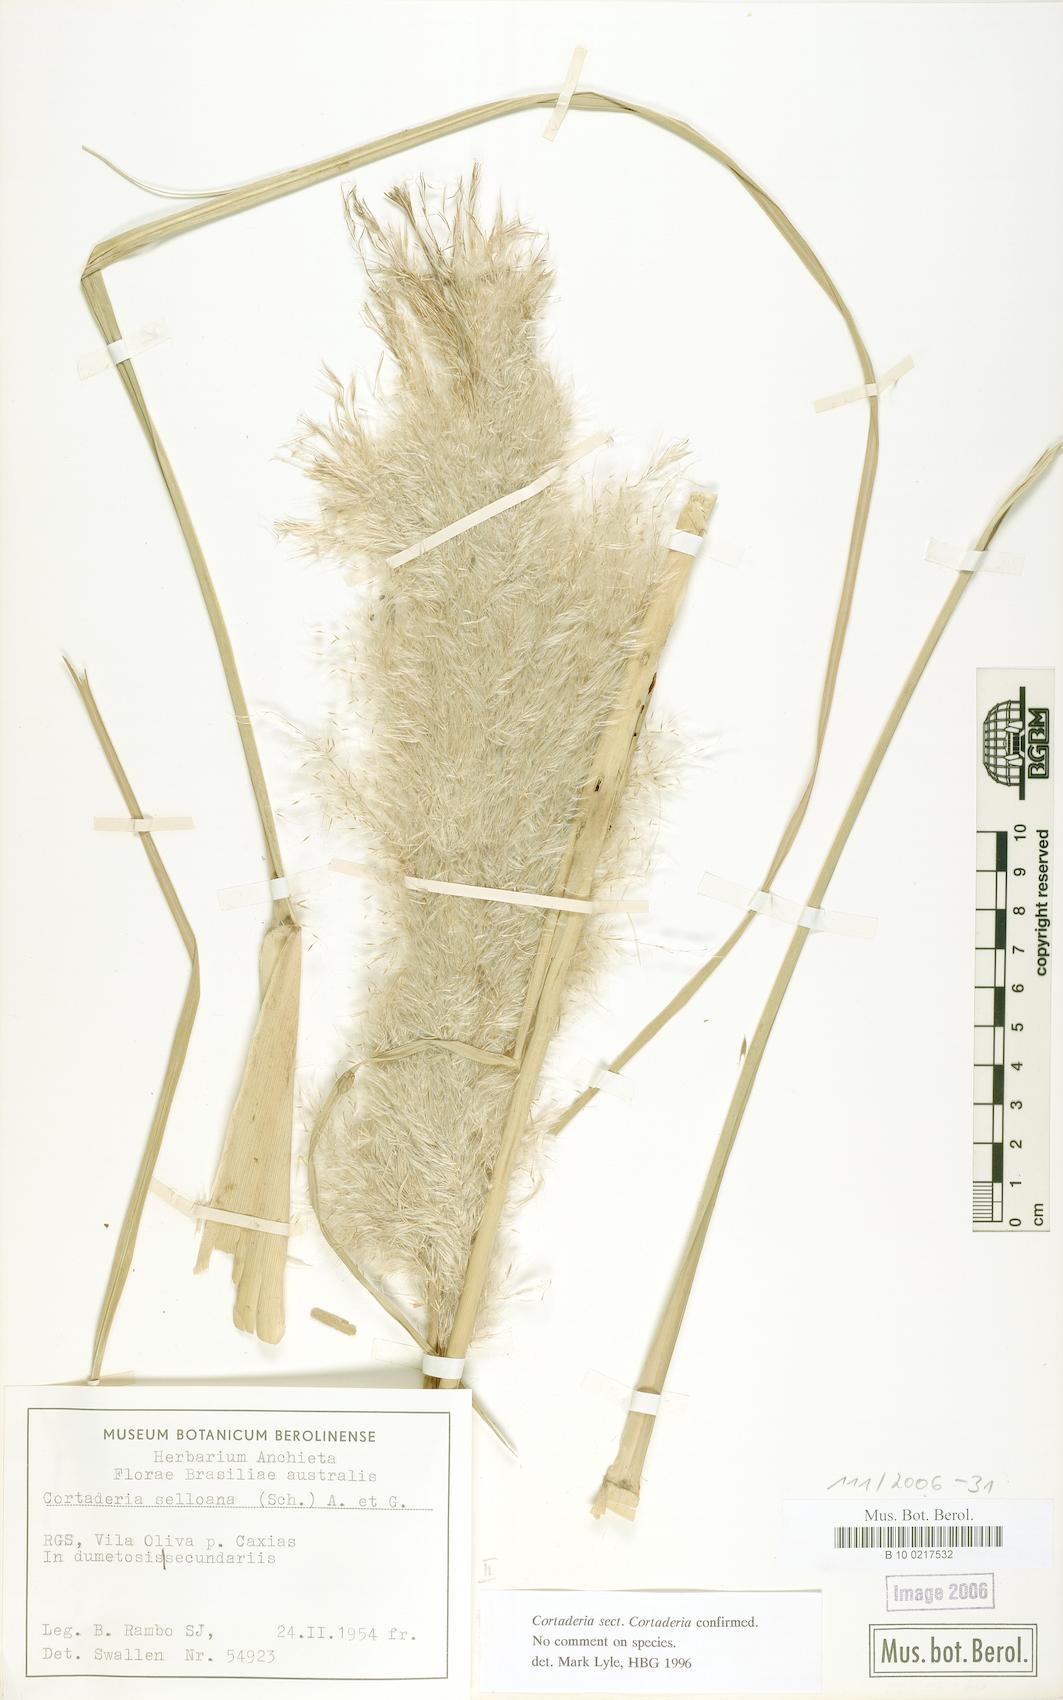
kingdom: Plantae
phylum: Tracheophyta
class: Liliopsida
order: Poales
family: Poaceae
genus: Cortaderia
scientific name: Cortaderia selloana
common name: Uruguayan pampas grass
